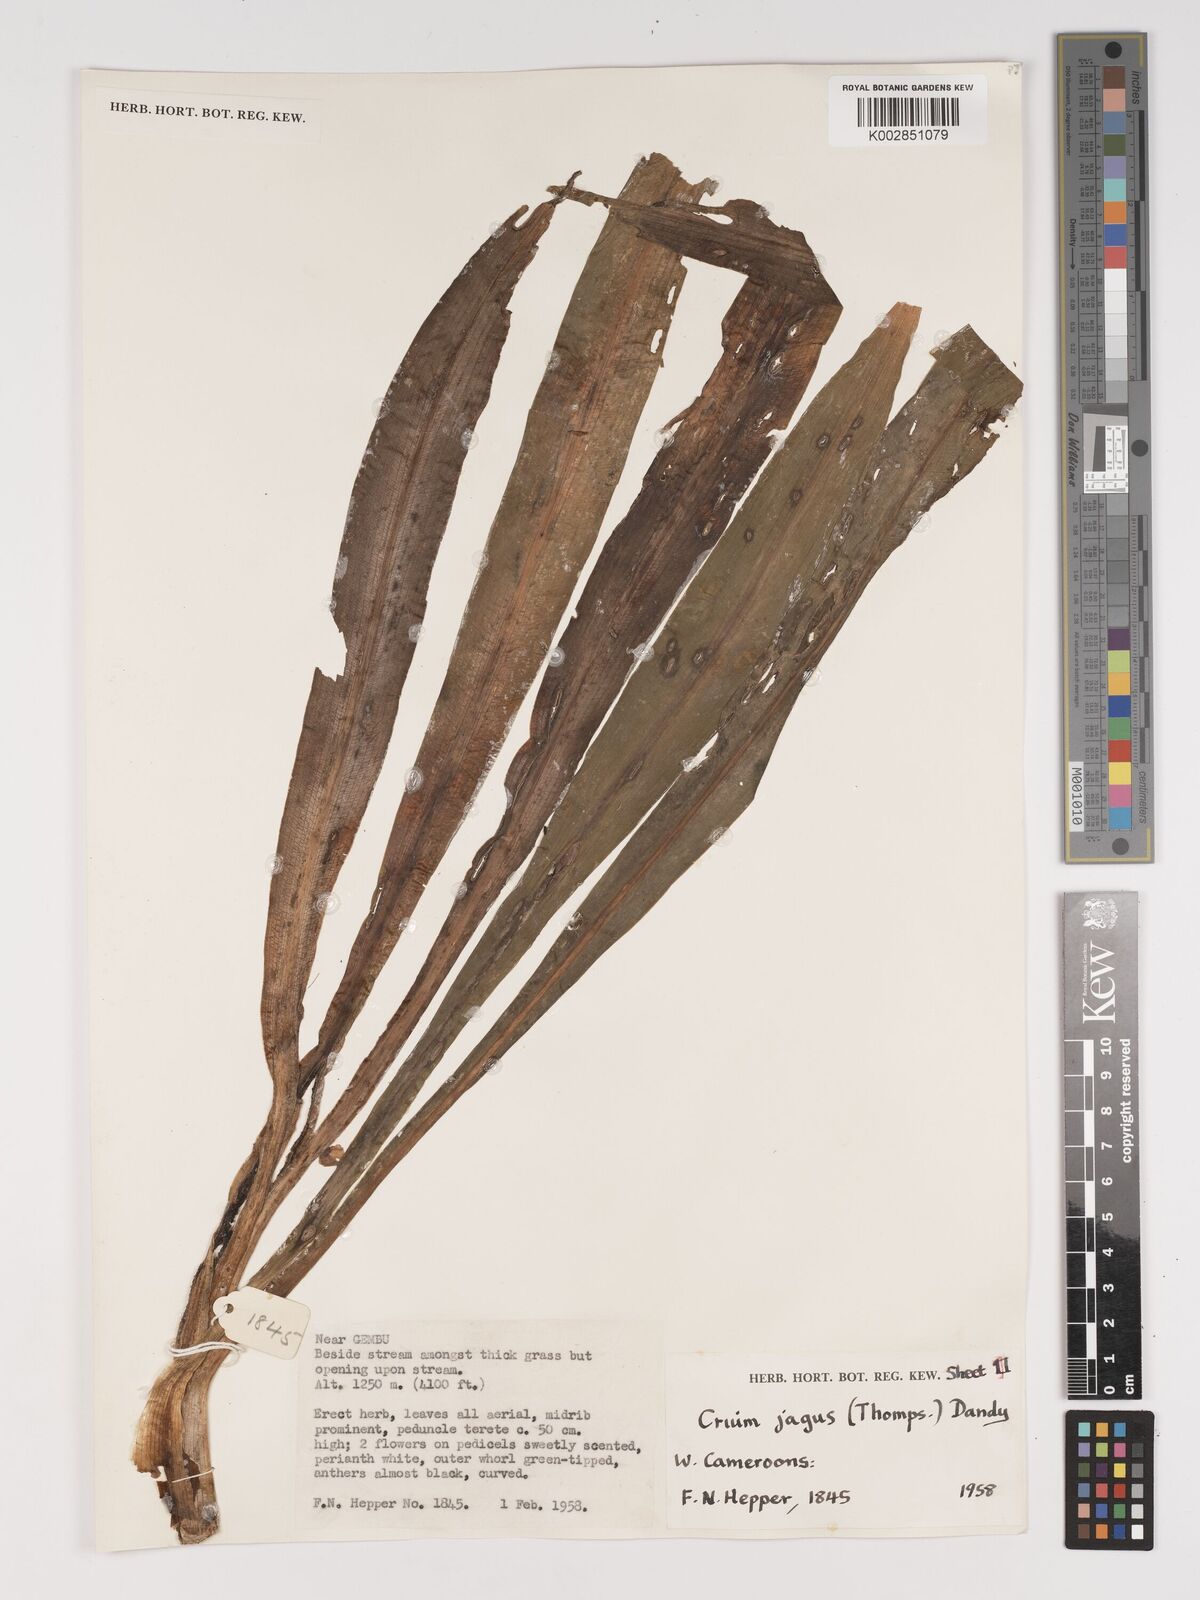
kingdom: Plantae
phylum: Tracheophyta
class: Liliopsida
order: Asparagales
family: Amaryllidaceae
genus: Crinum
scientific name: Crinum jagus
